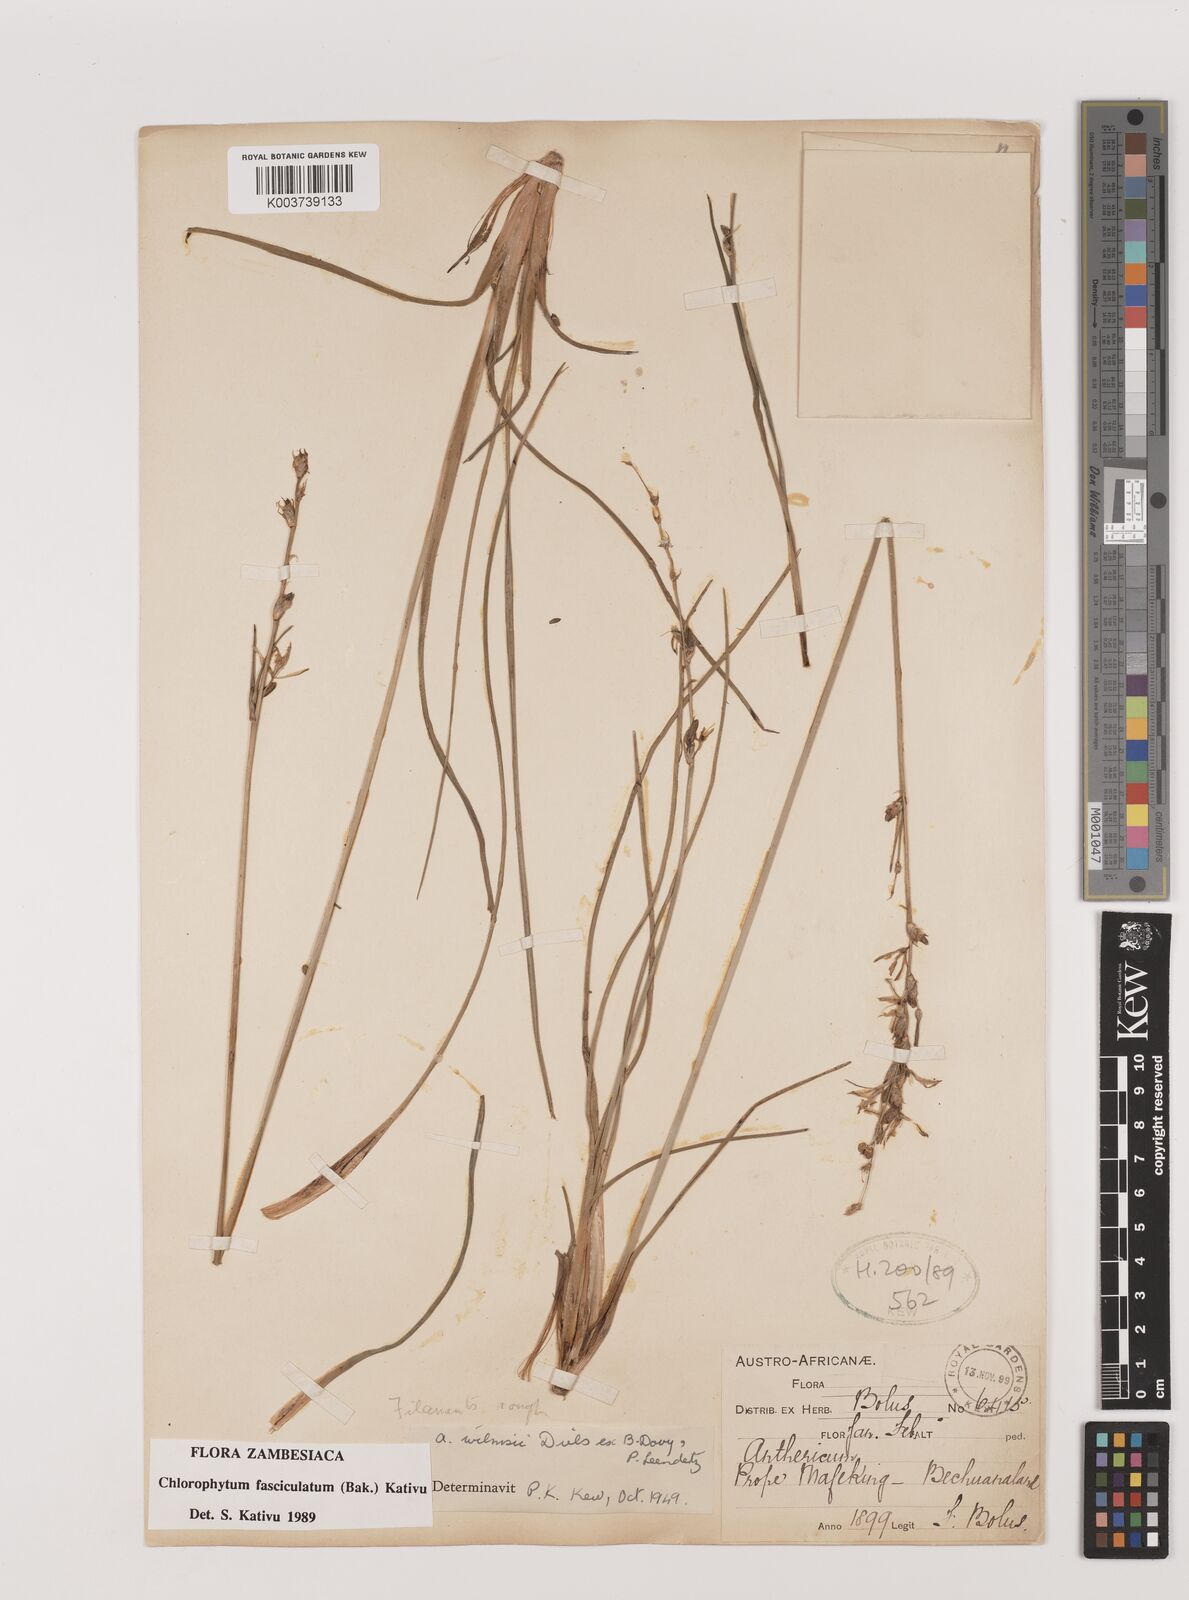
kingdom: Plantae
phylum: Tracheophyta
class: Liliopsida
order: Asparagales
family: Asparagaceae
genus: Chlorophytum
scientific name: Chlorophytum fasciculatum
